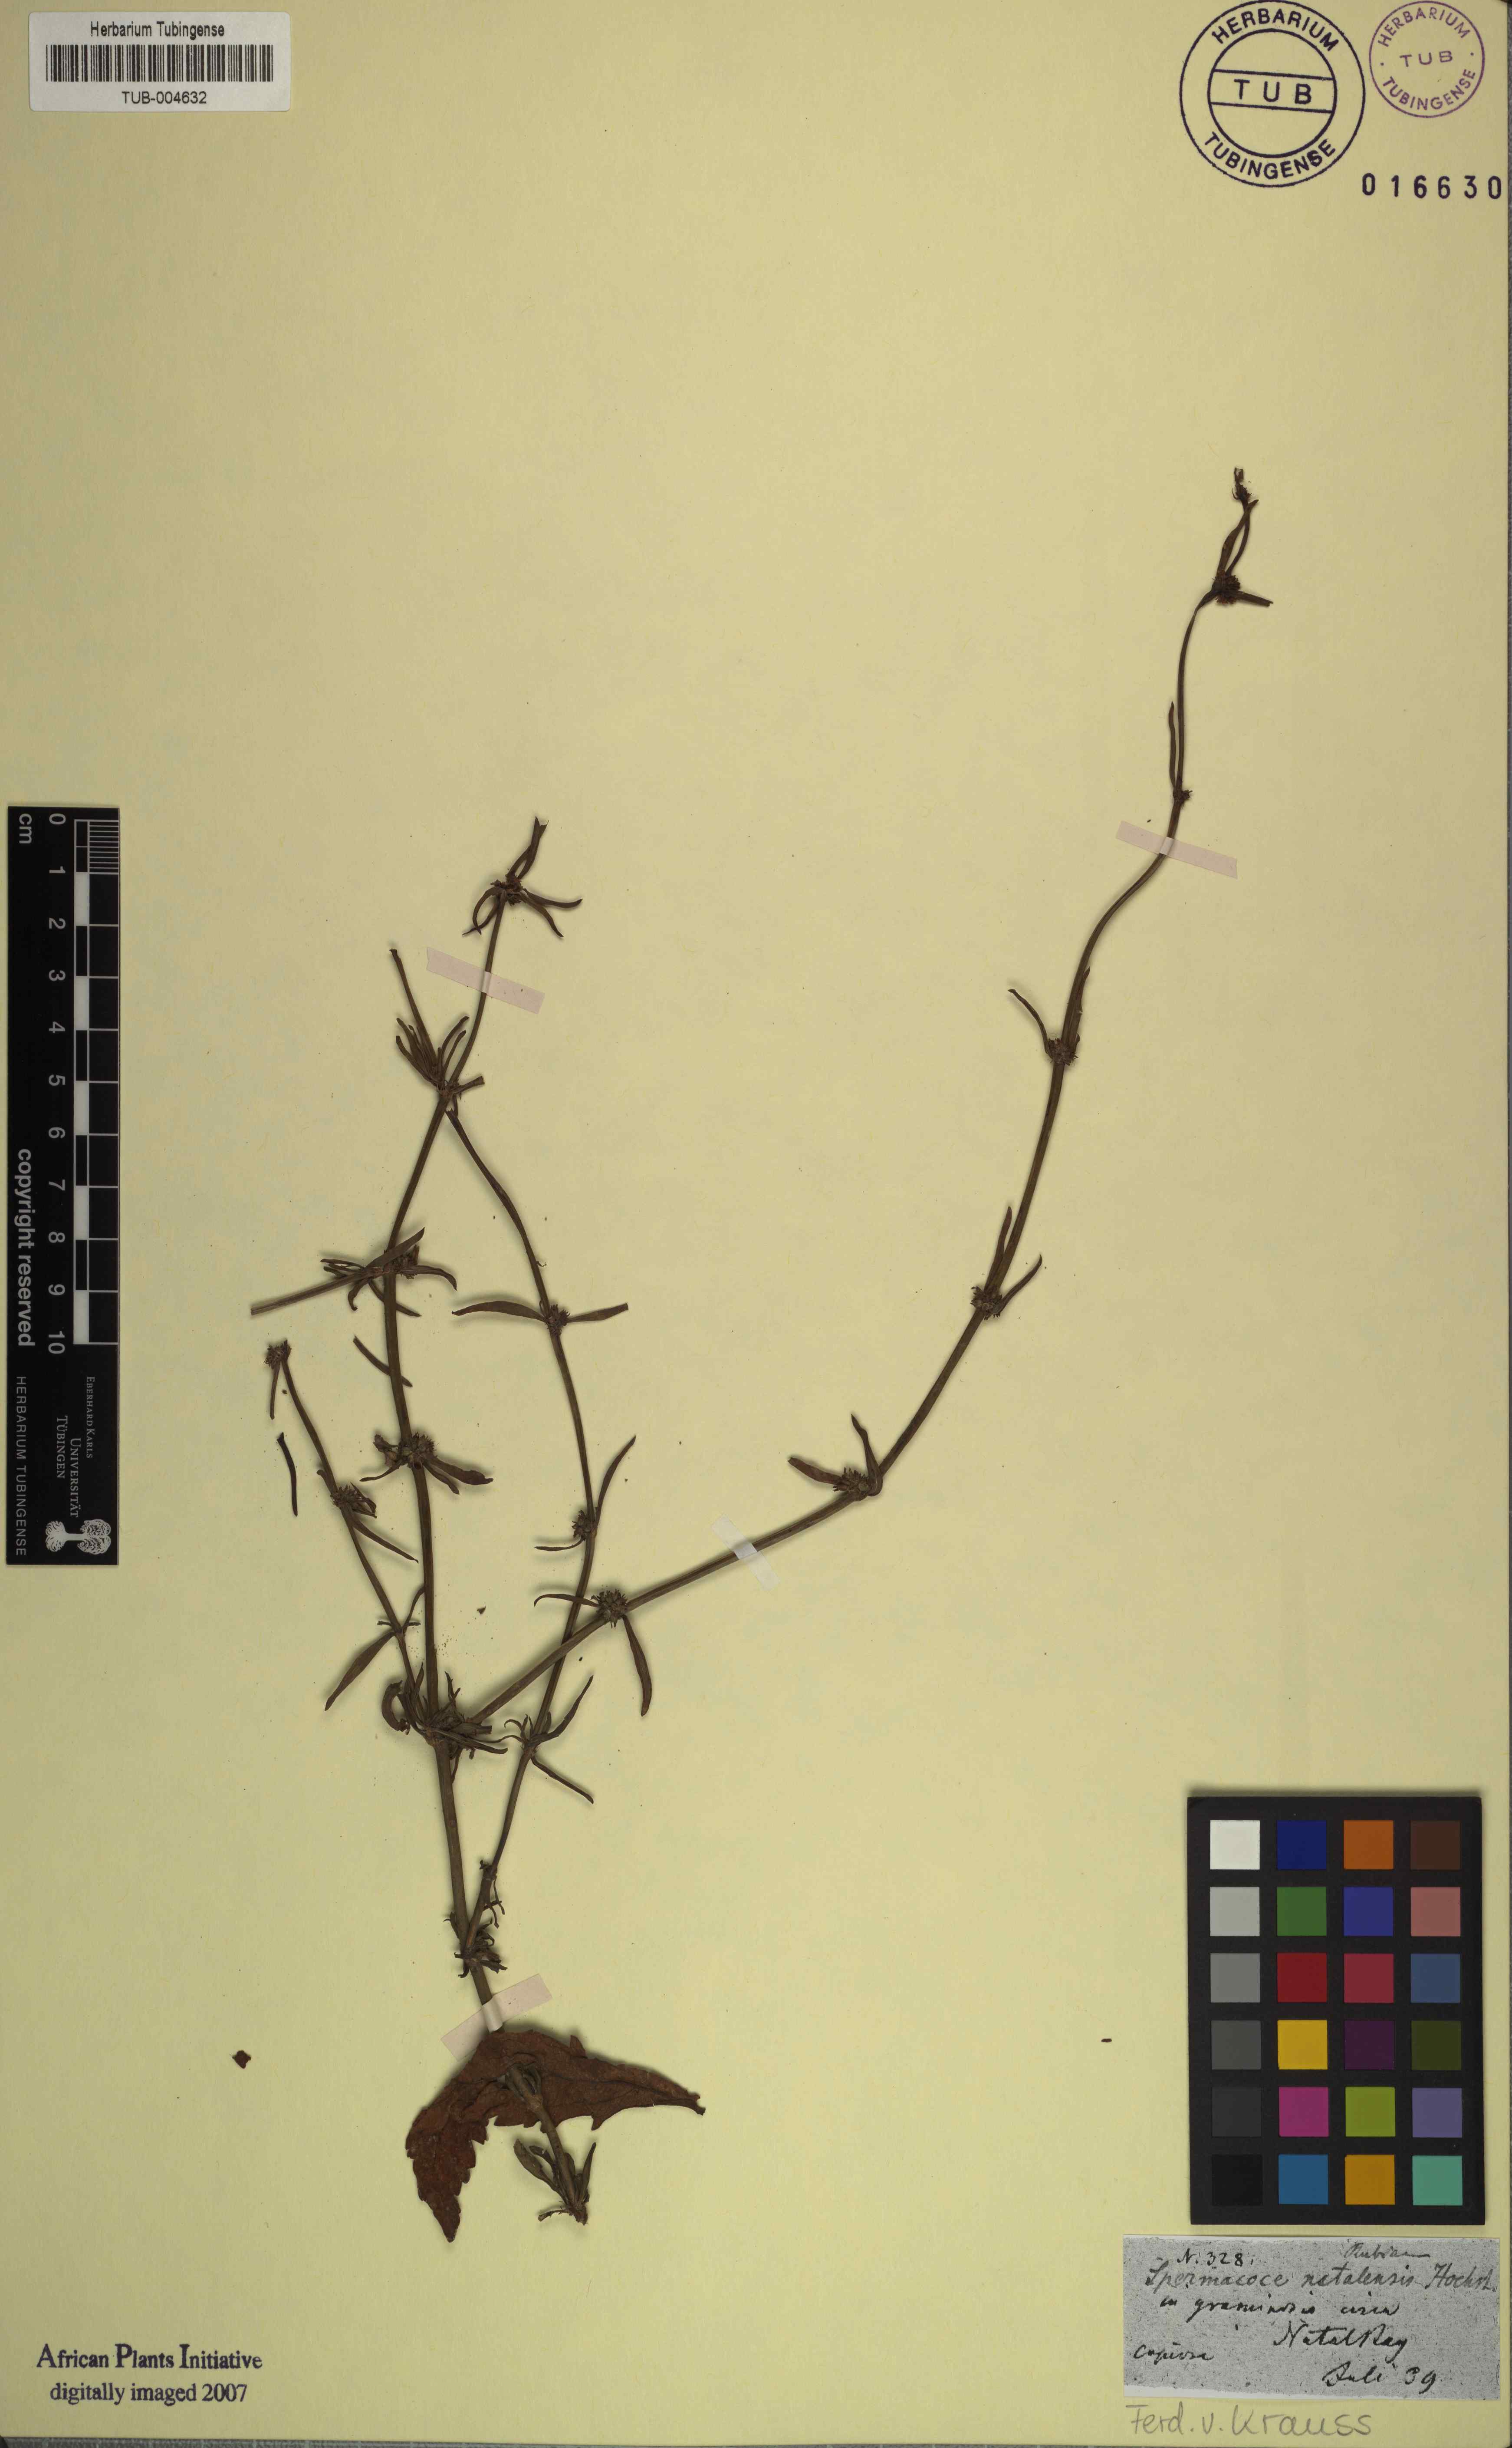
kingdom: Plantae
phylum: Tracheophyta
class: Magnoliopsida
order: Gentianales
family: Rubiaceae
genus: Spermacoce
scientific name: Spermacoce natalensis
